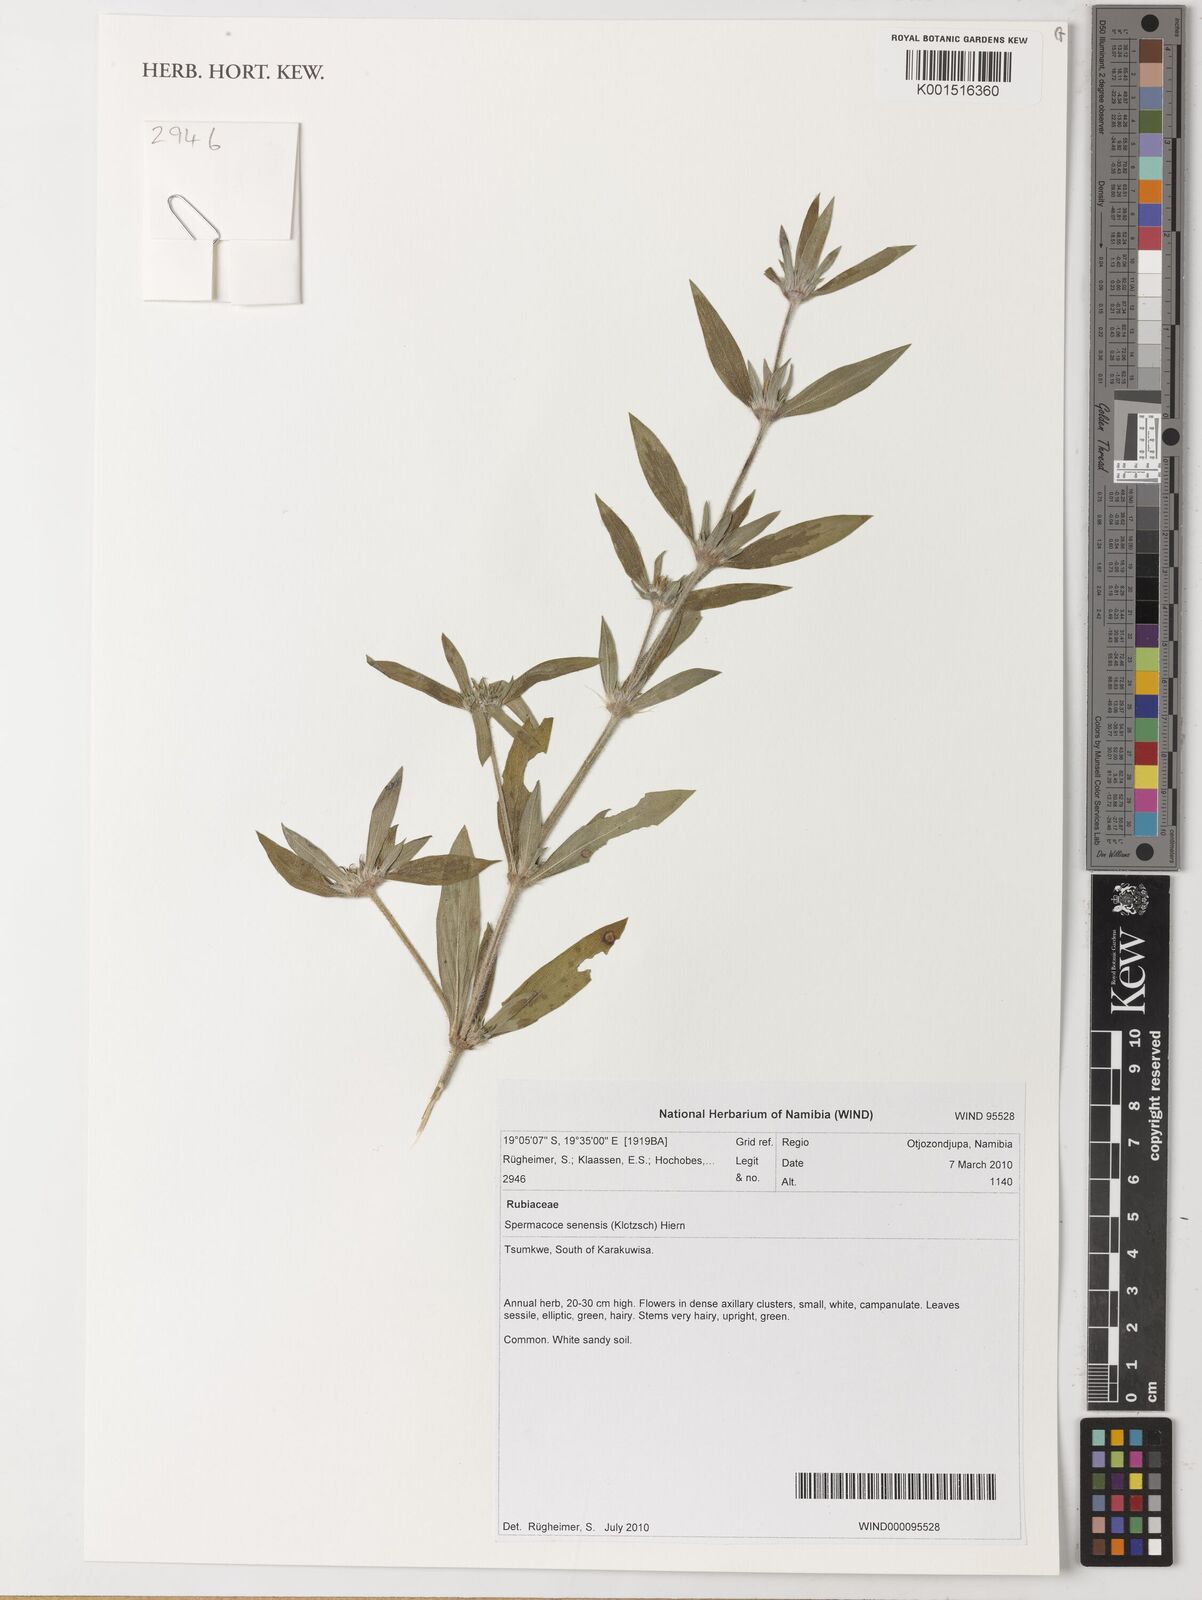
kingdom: Plantae
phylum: Tracheophyta
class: Magnoliopsida
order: Gentianales
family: Rubiaceae
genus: Spermacoce
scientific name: Spermacoce senensis
